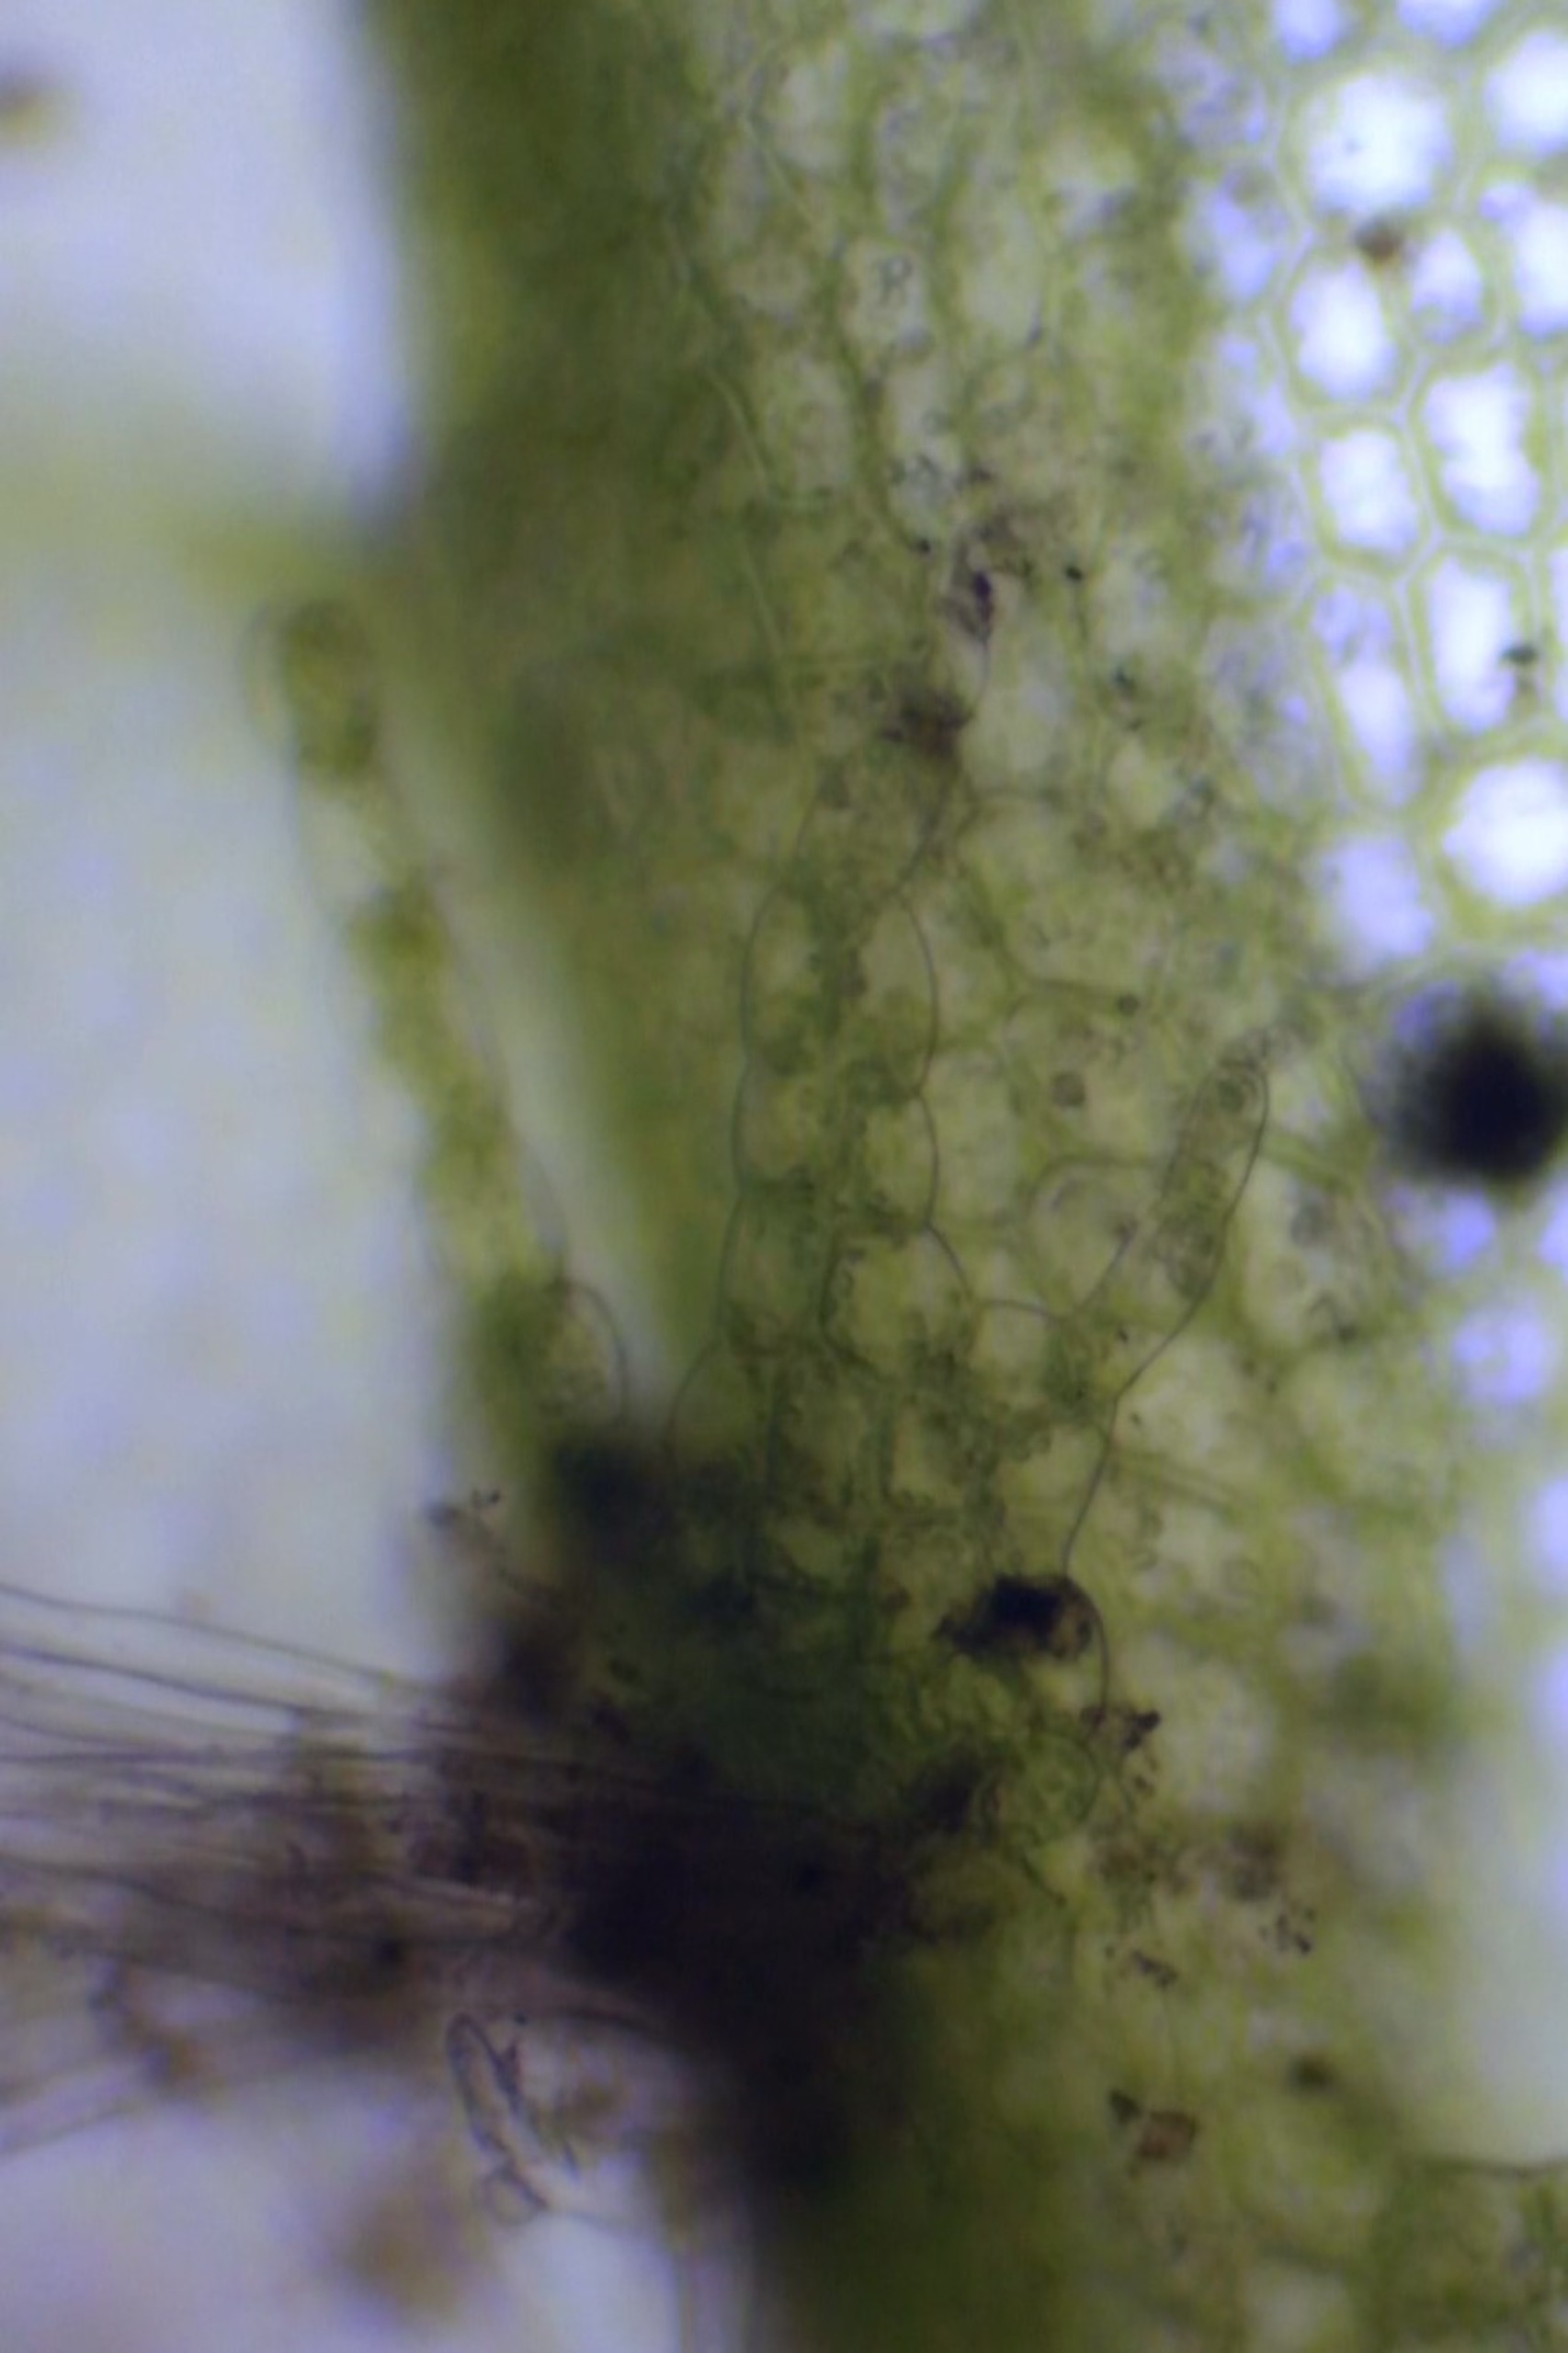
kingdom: Plantae
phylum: Marchantiophyta
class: Jungermanniopsida
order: Jungermanniales
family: Lophocoleaceae
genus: Lophocolea
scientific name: Lophocolea heterophylla
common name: Forskelligbladet kamsvøb
